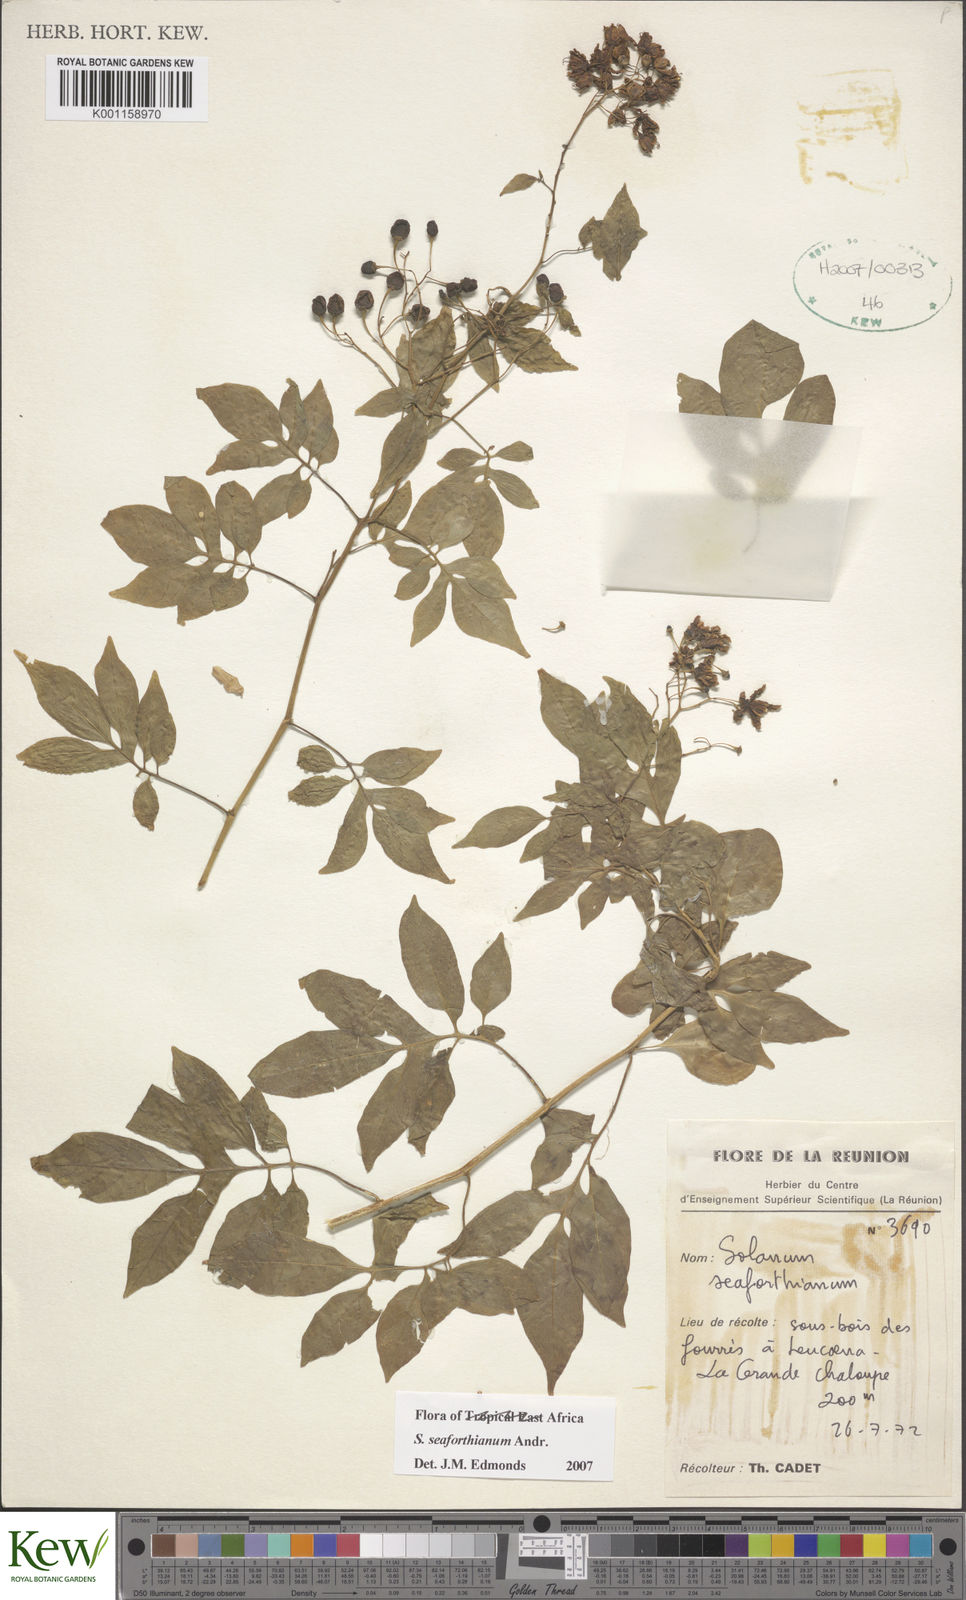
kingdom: Plantae
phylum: Tracheophyta
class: Magnoliopsida
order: Solanales
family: Solanaceae
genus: Solanum
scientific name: Solanum seaforthianum
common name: Brazilian nightshade
